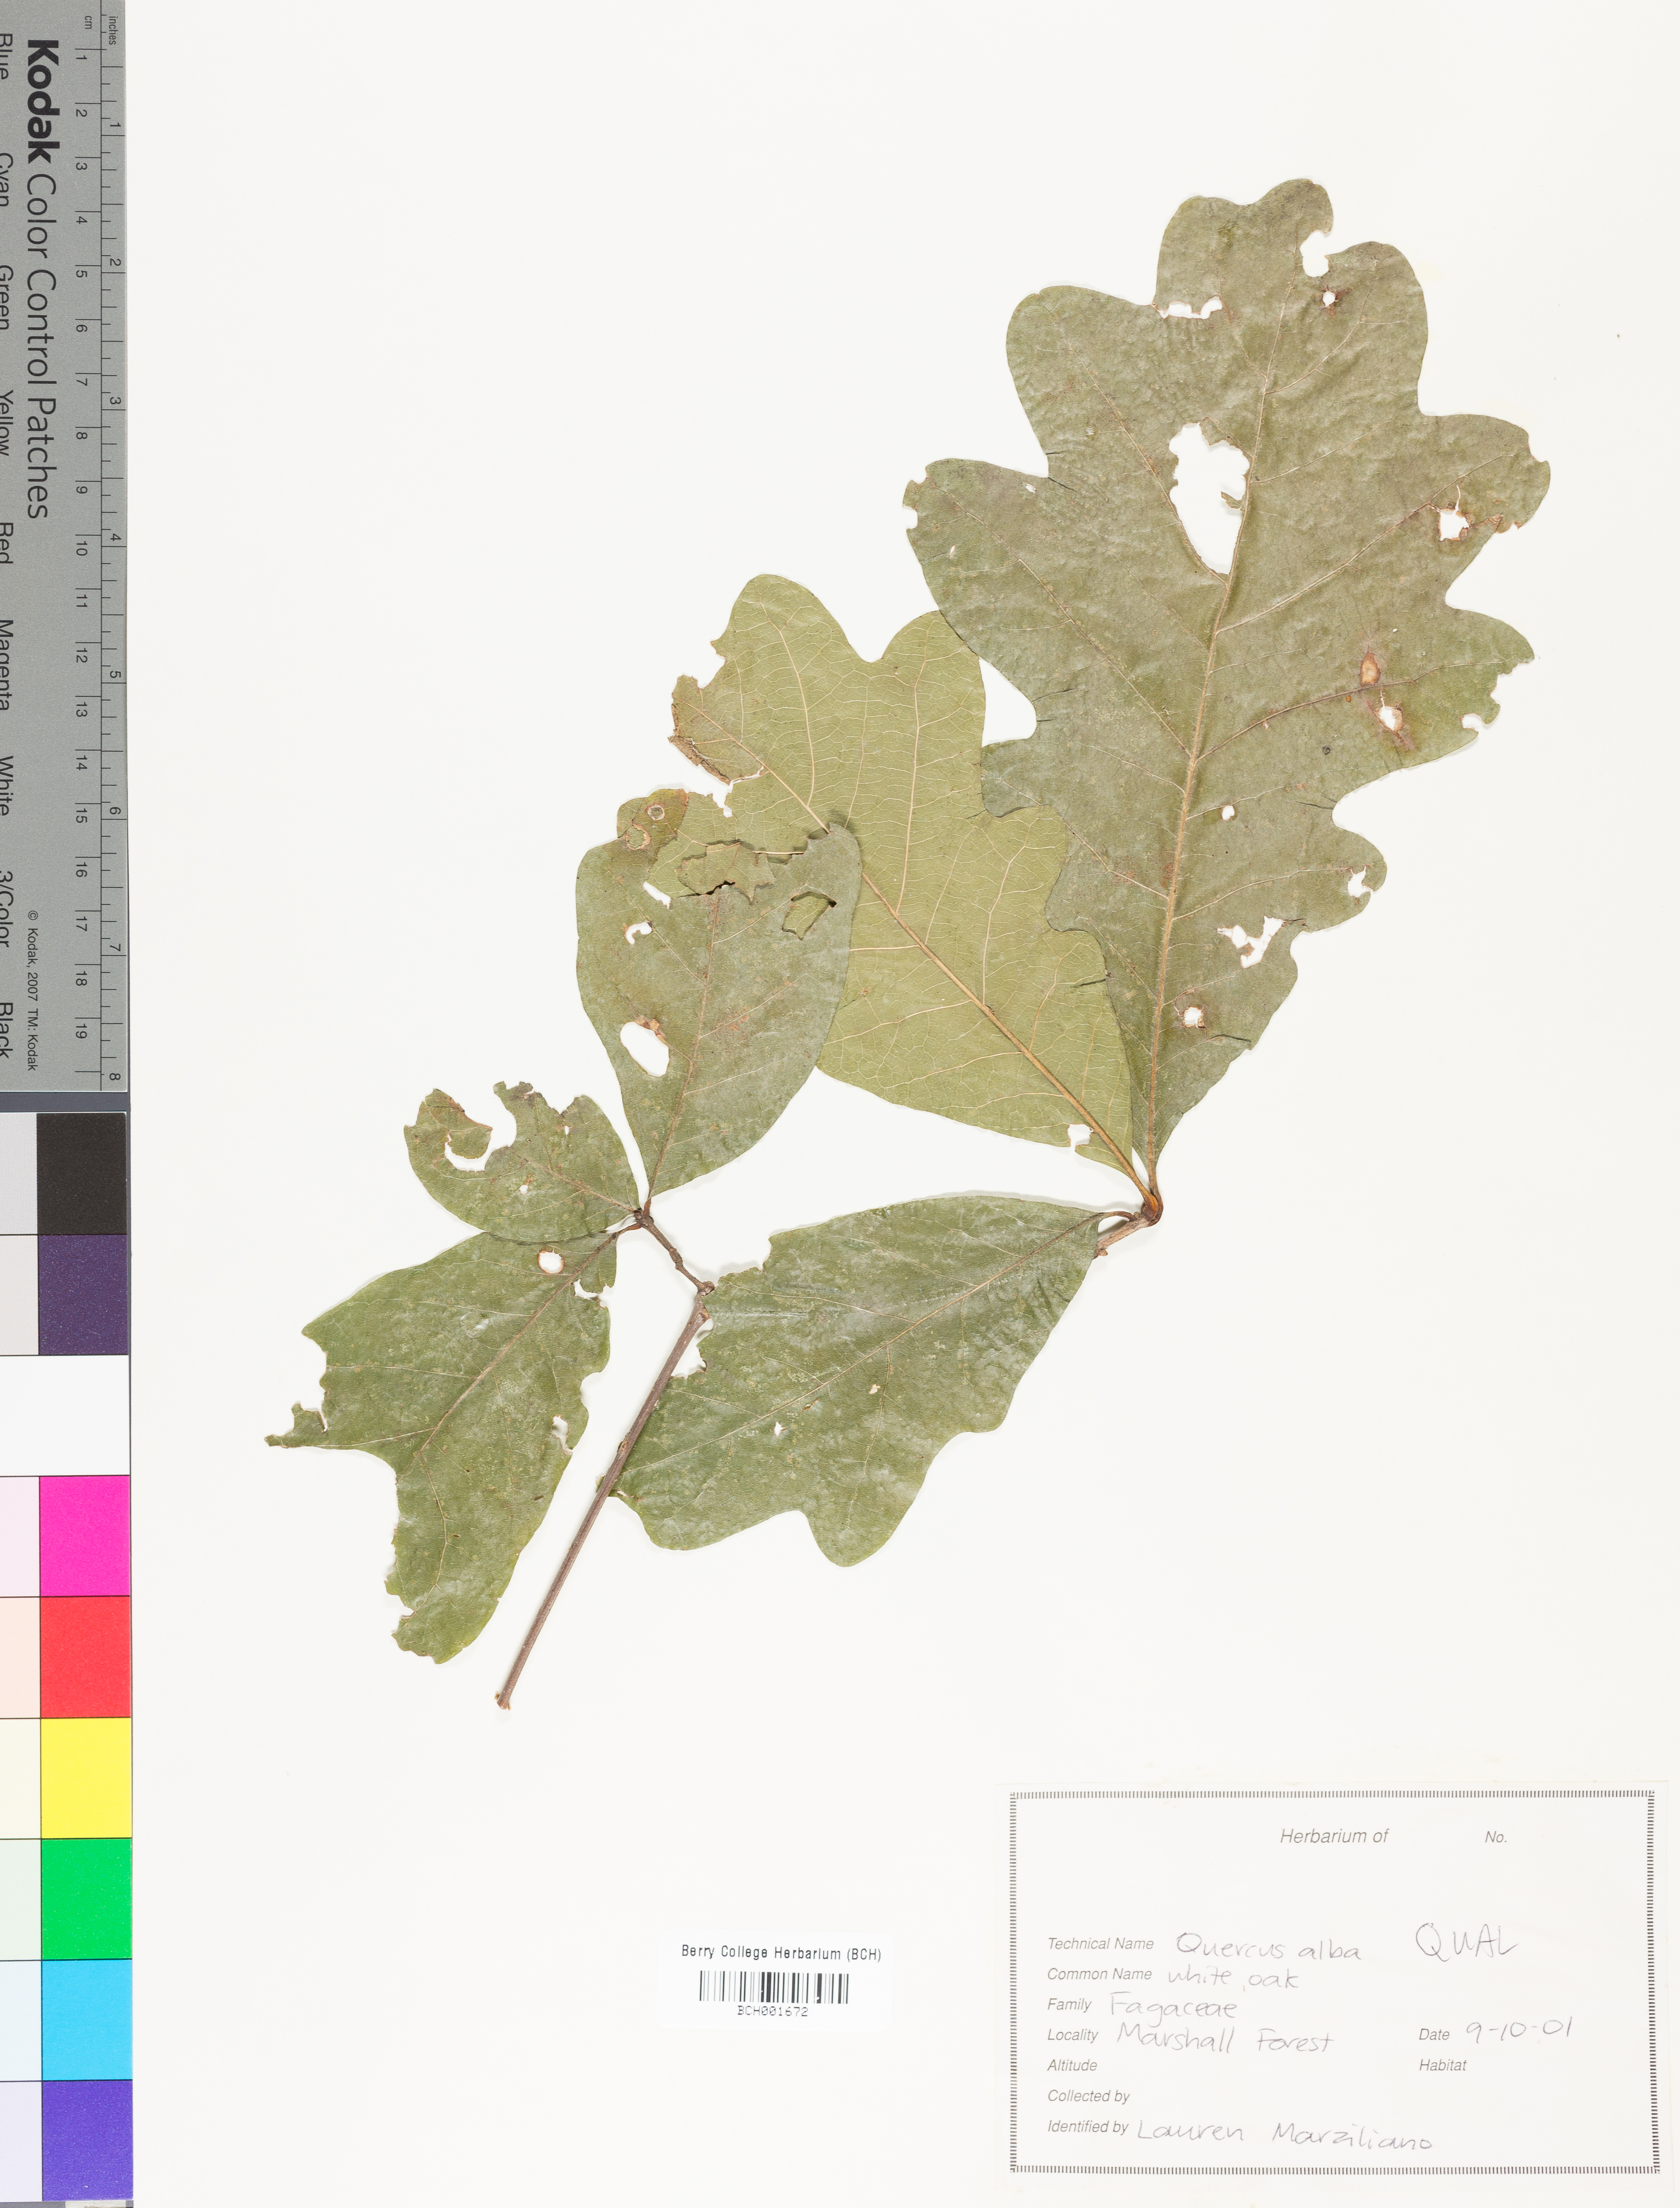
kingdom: Plantae
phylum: Tracheophyta
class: Magnoliopsida
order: Fagales
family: Fagaceae
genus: Quercus
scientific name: Quercus alba
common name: White oak
